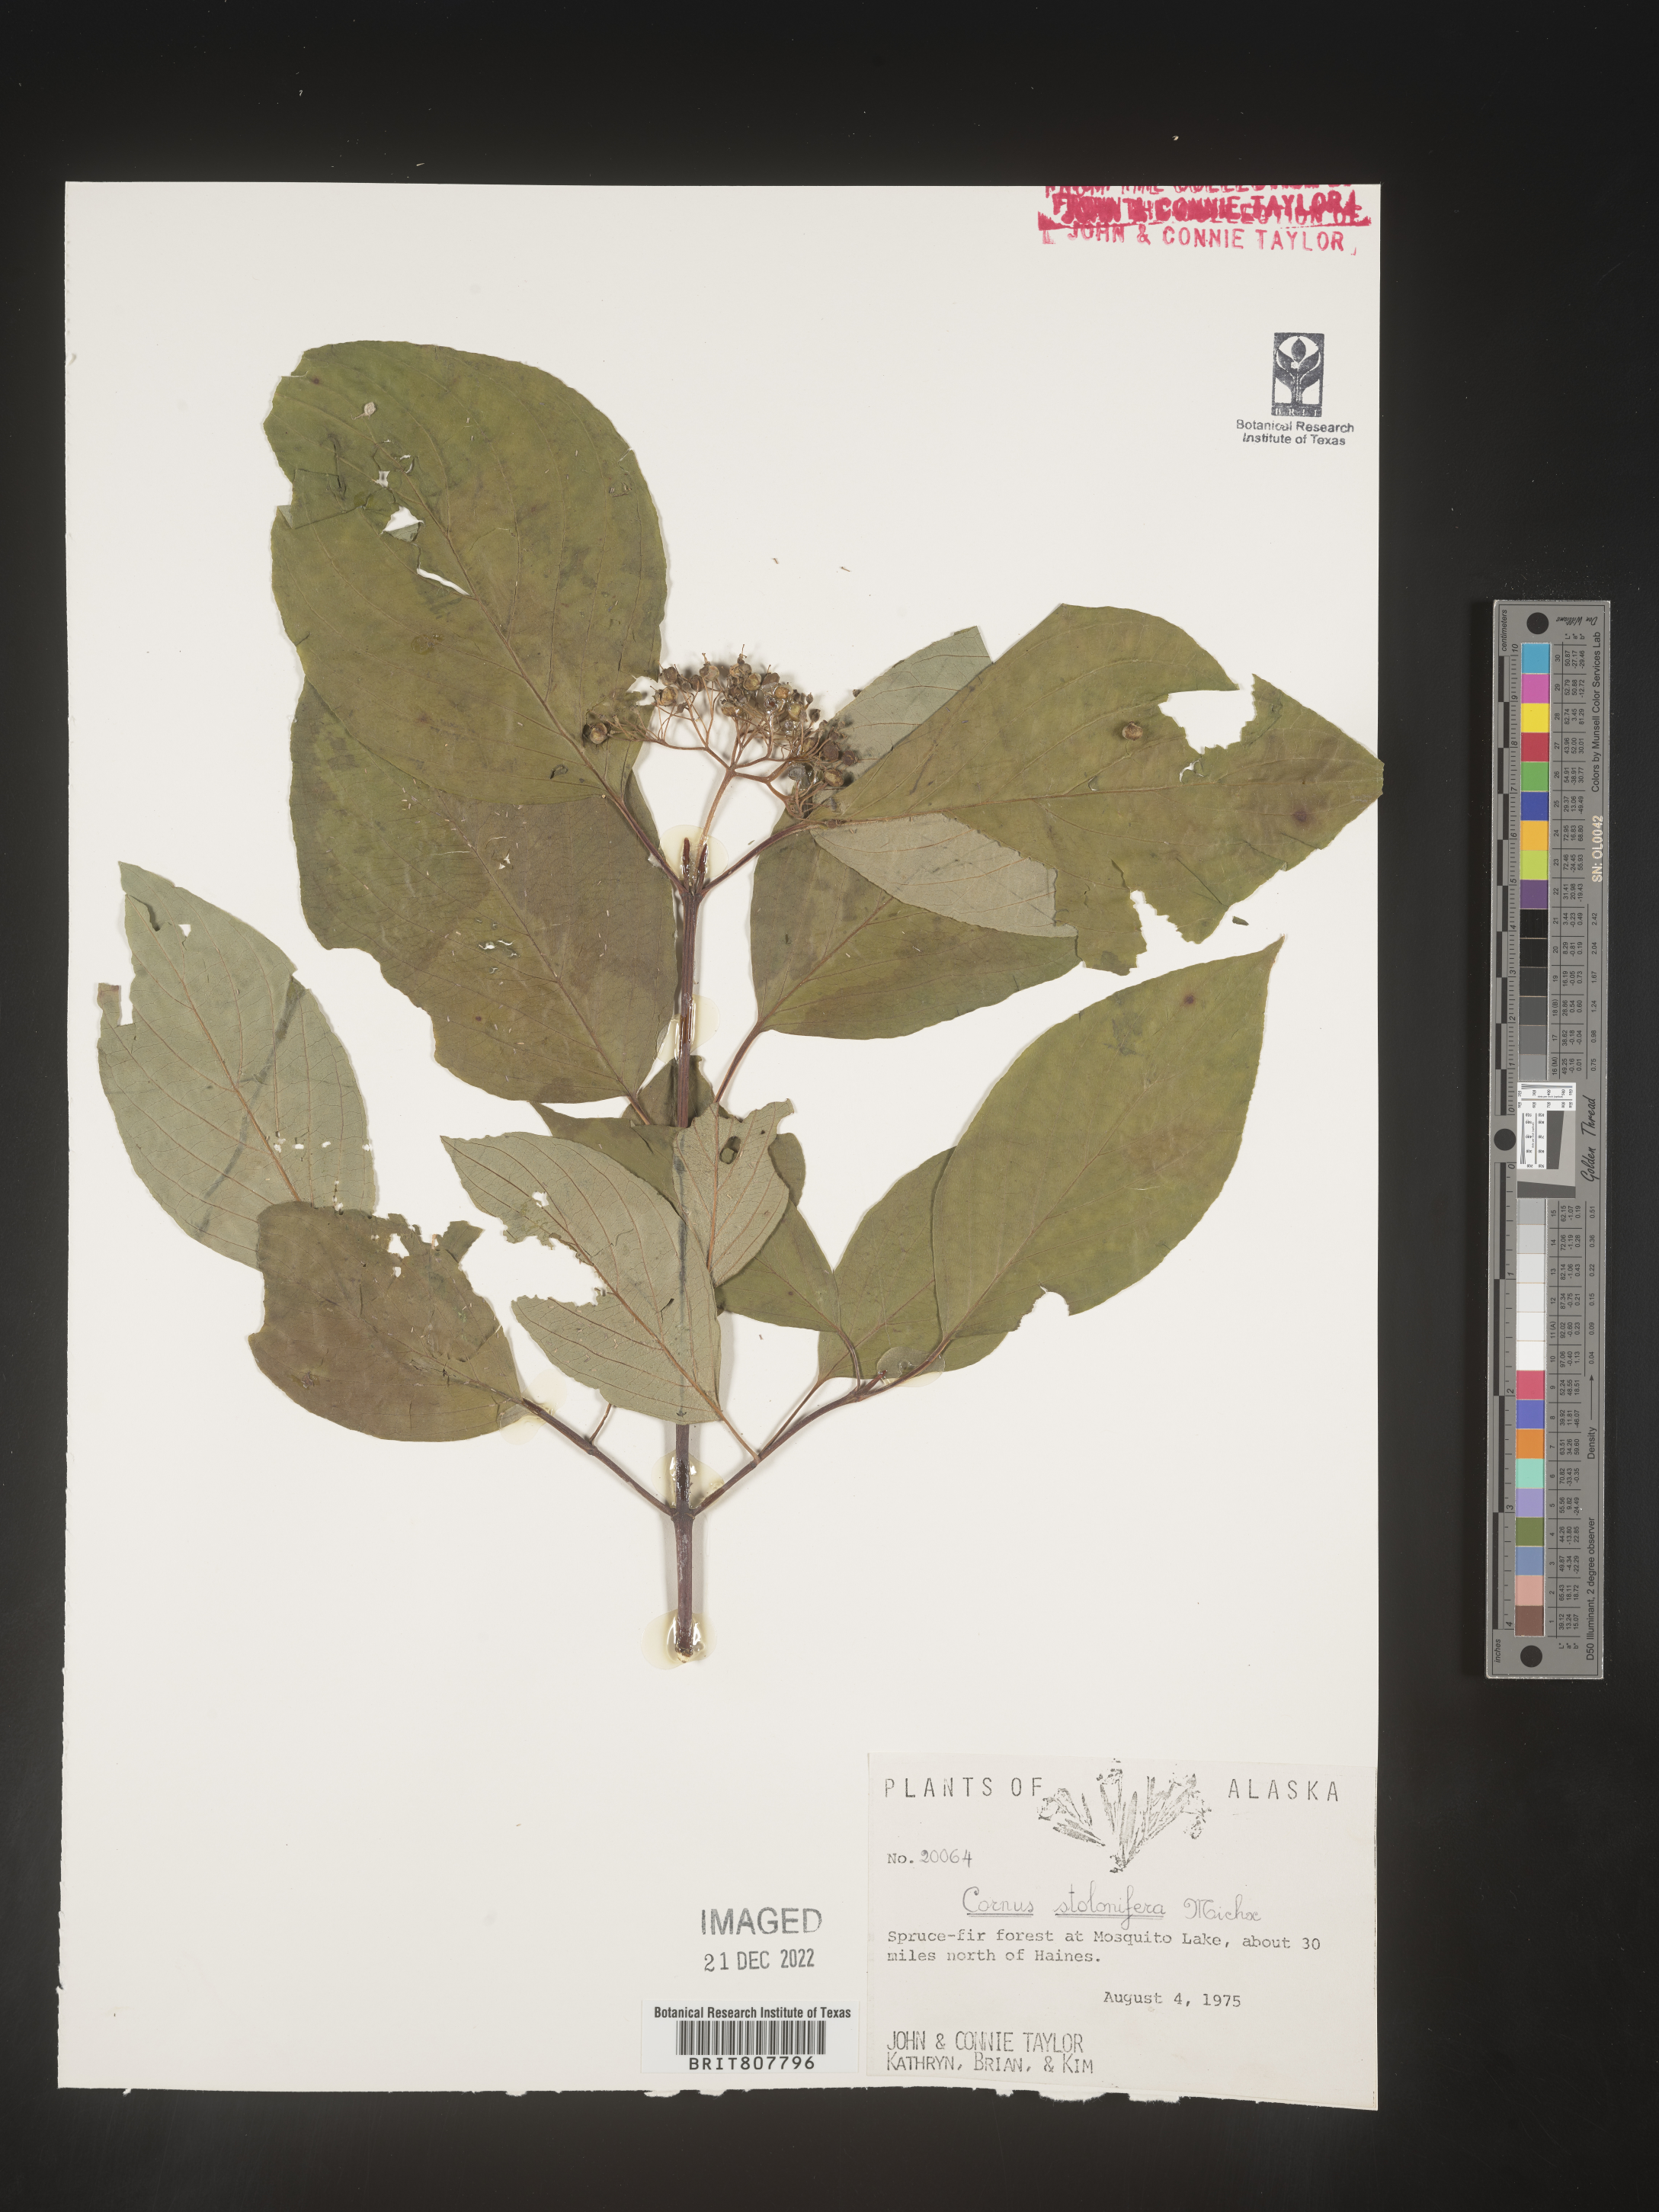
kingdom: Plantae
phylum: Tracheophyta
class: Magnoliopsida
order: Cornales
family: Cornaceae
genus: Cornus
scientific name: Cornus sericea
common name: Red-osier dogwood
